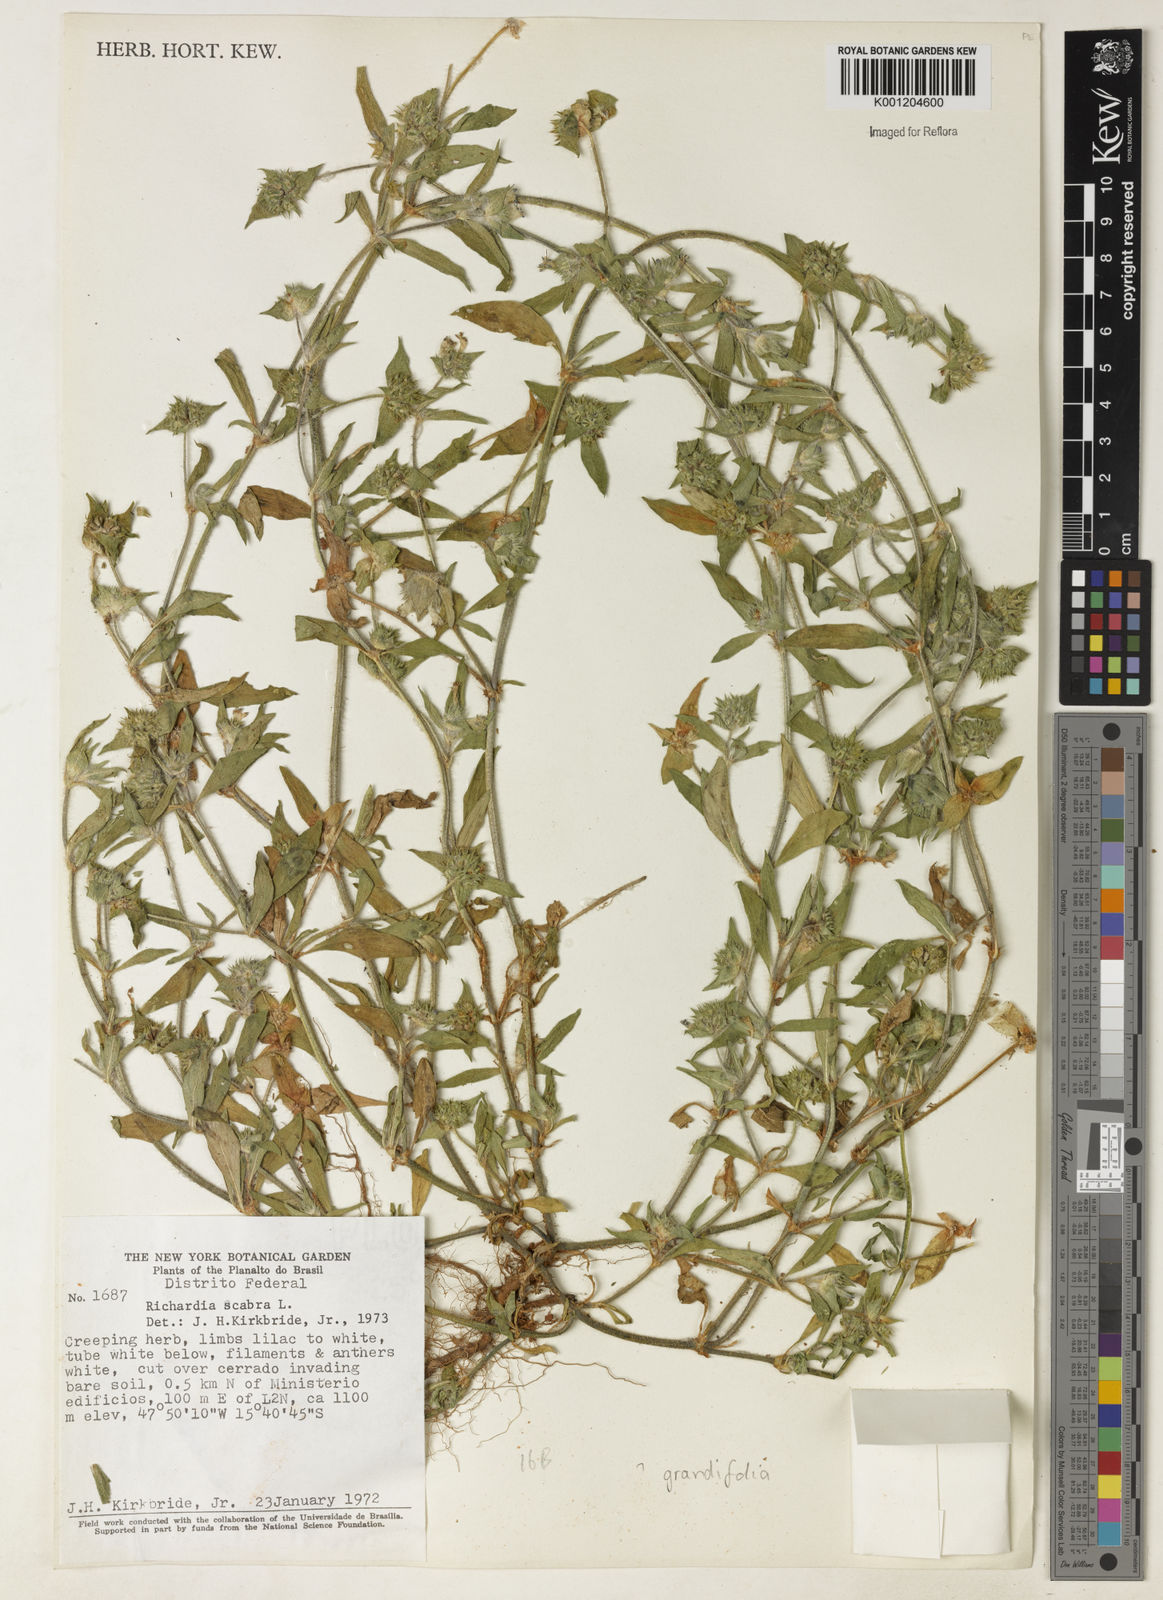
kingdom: Plantae
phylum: Tracheophyta
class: Magnoliopsida
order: Gentianales
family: Rubiaceae
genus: Richardia
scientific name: Richardia grandiflora
